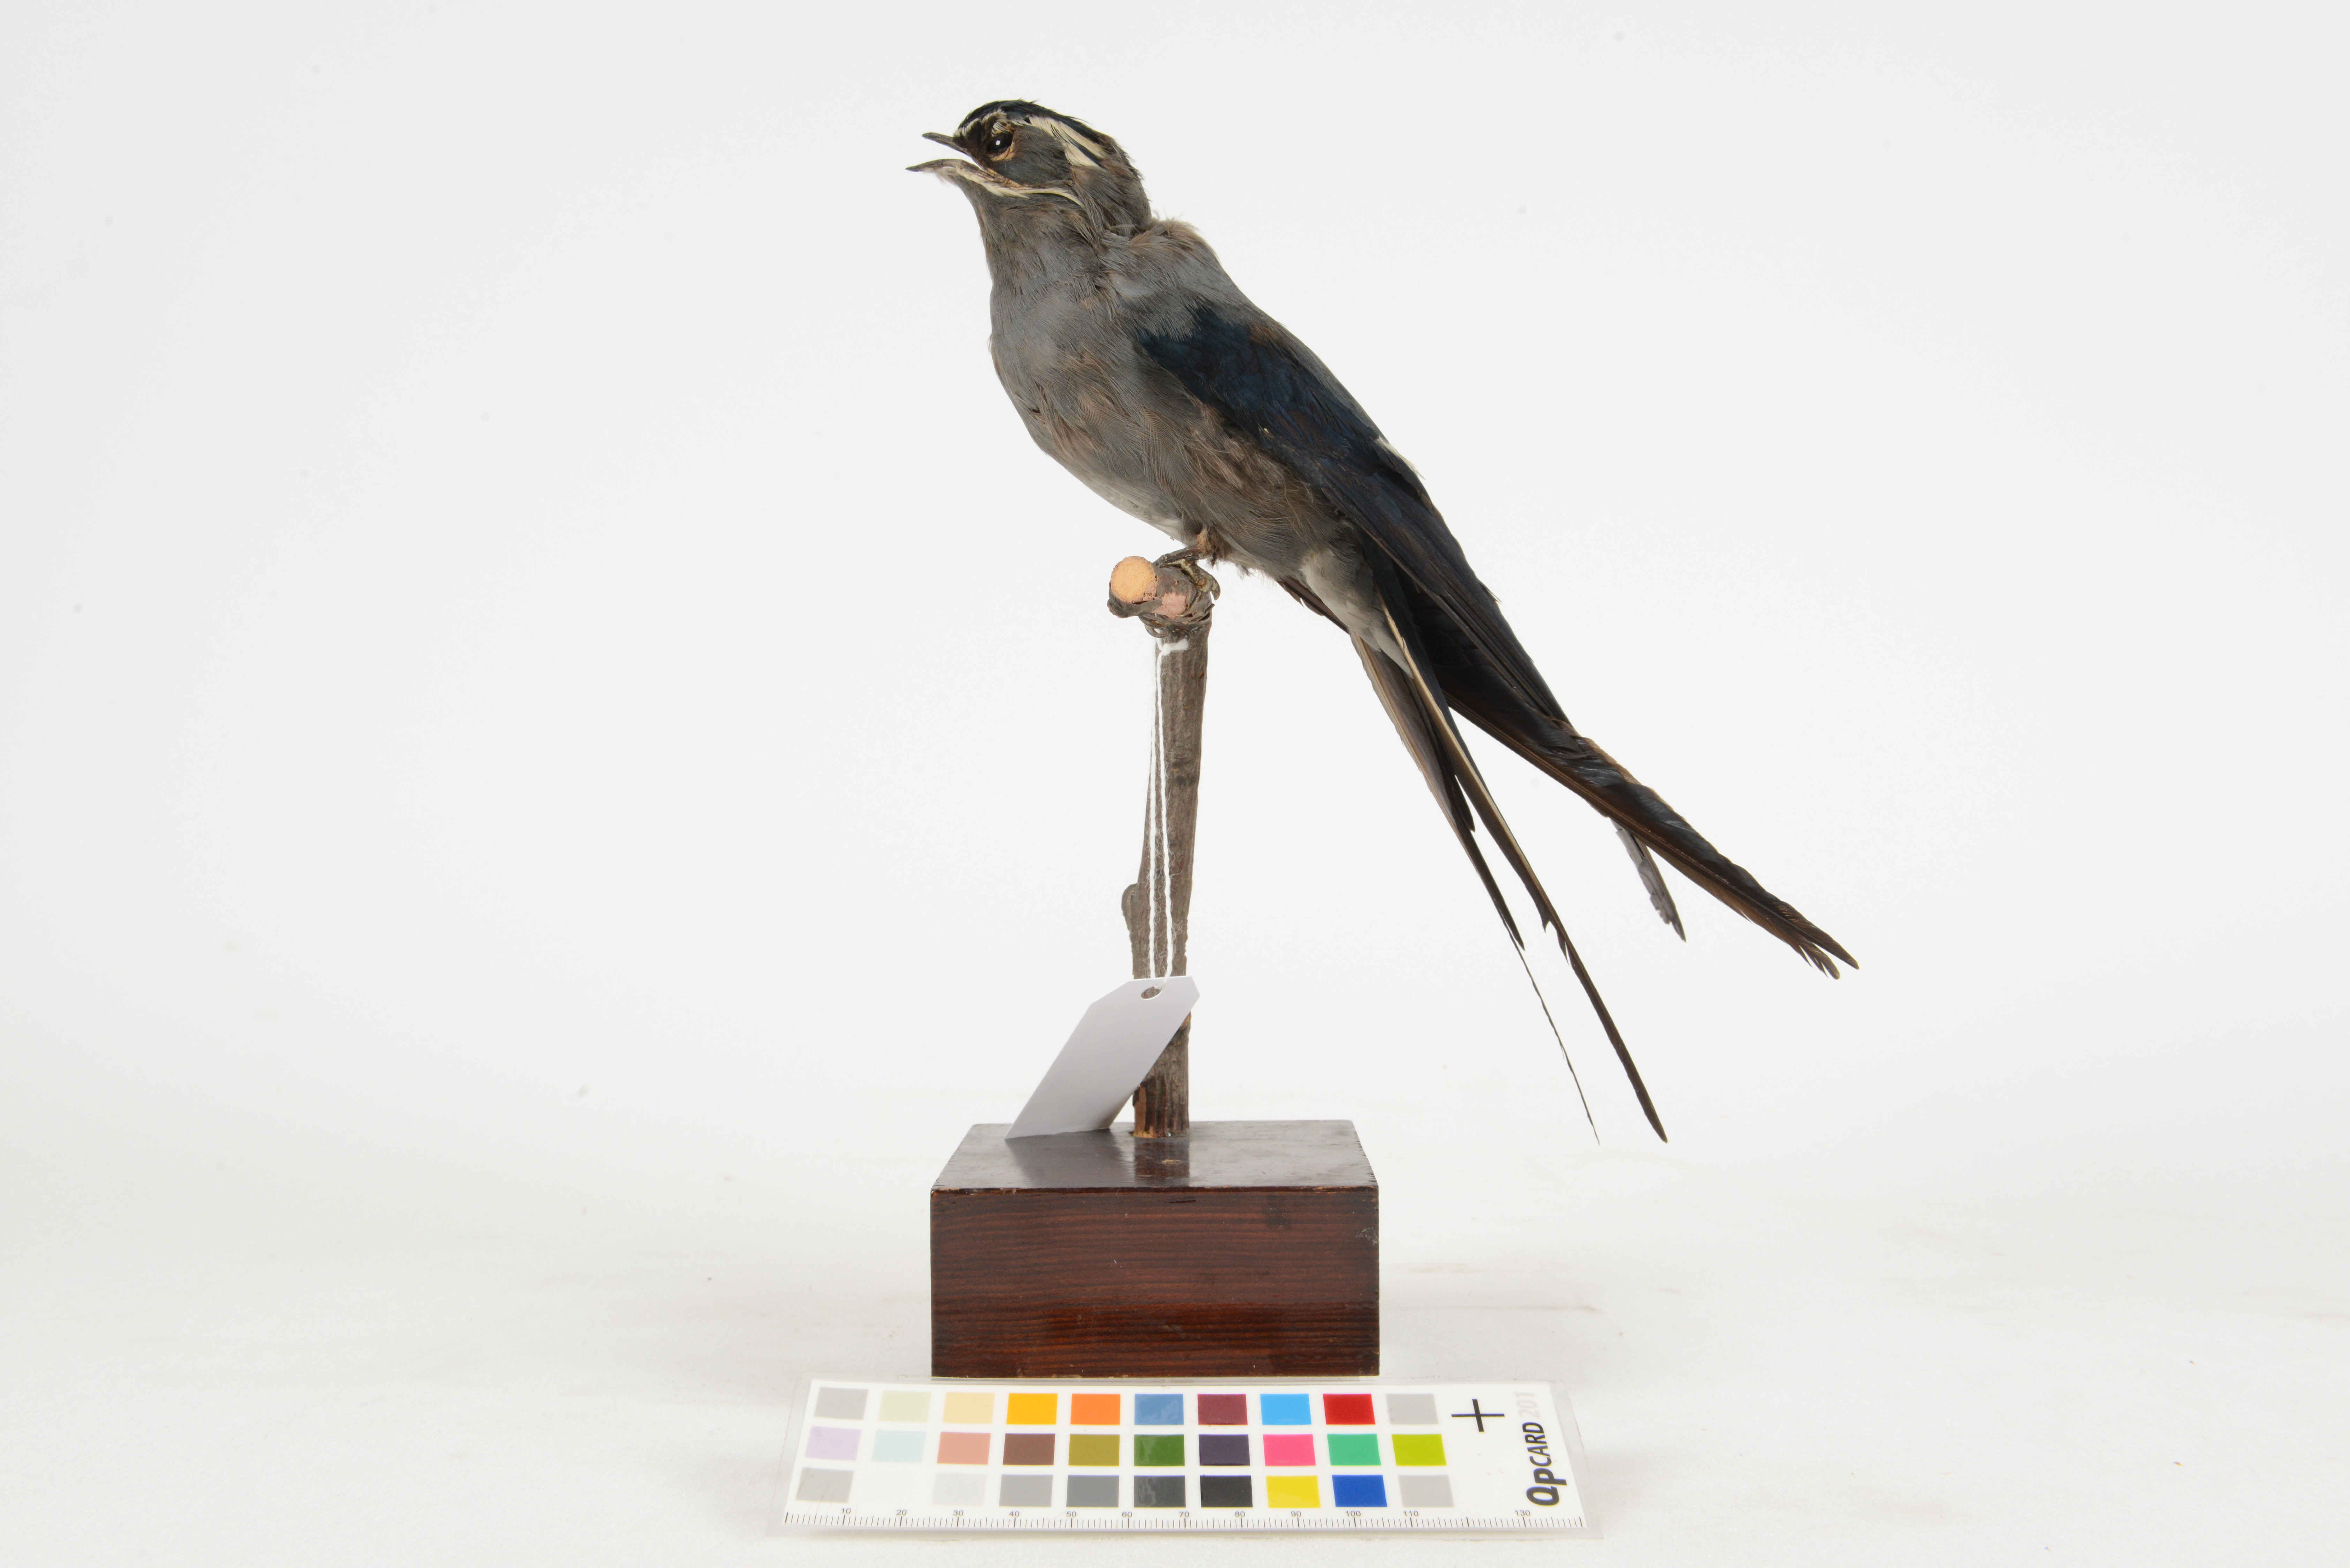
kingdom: Animalia
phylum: Chordata
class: Aves
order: Apodiformes
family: Hemiprocnidae
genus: Hemiprocne
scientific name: Hemiprocne mystacea
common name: Moustached treeswift
